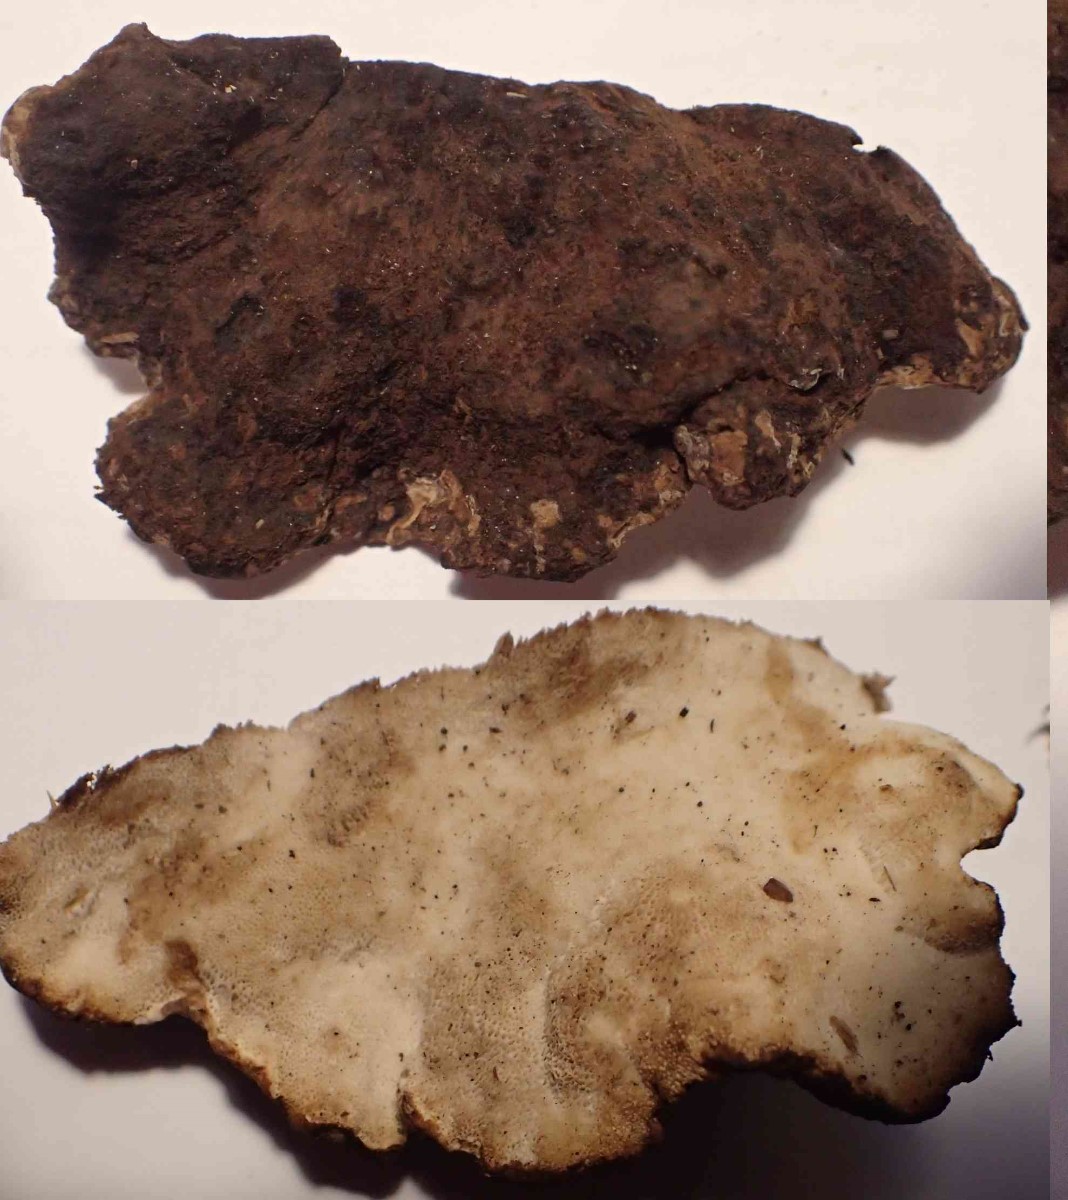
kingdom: Fungi
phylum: Basidiomycota
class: Agaricomycetes
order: Polyporales
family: Ischnodermataceae
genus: Ischnoderma
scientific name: Ischnoderma benzoinum
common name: gran-tjæreporesvamp
